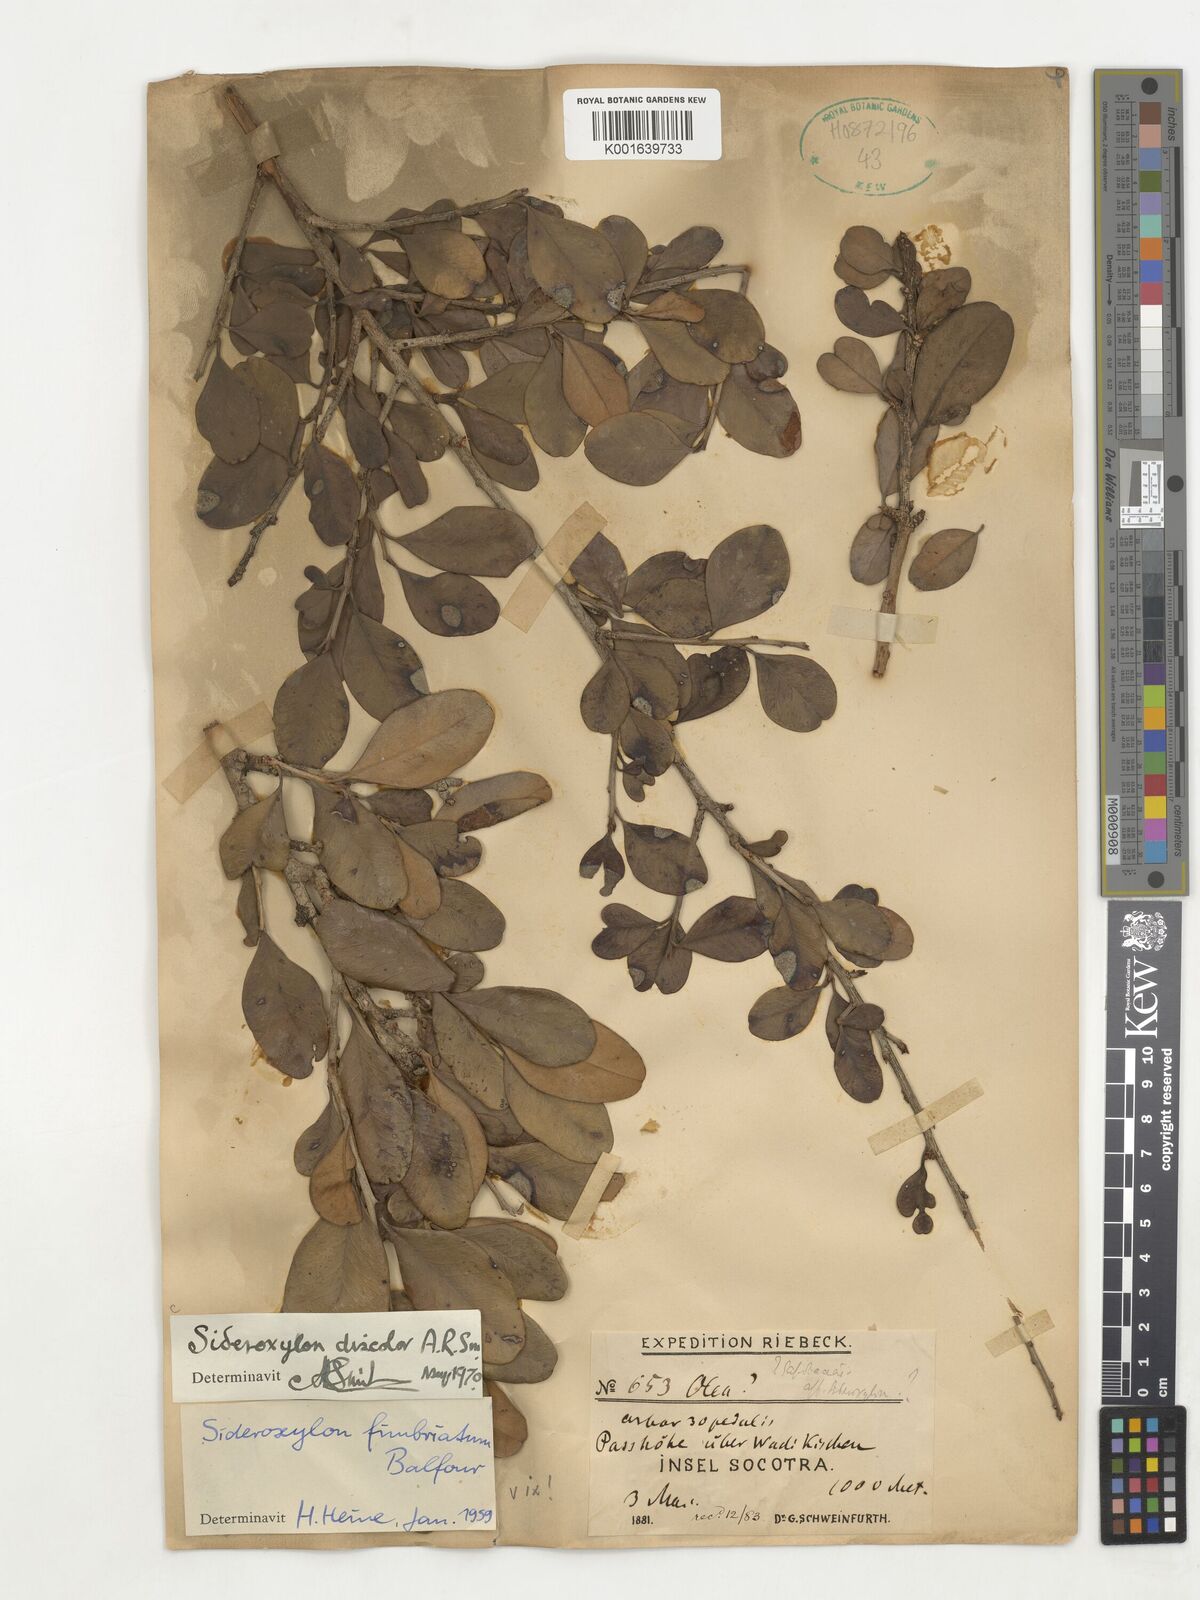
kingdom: Plantae
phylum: Tracheophyta
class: Magnoliopsida
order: Ericales
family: Sapotaceae
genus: Spiniluma
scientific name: Spiniluma discolor
